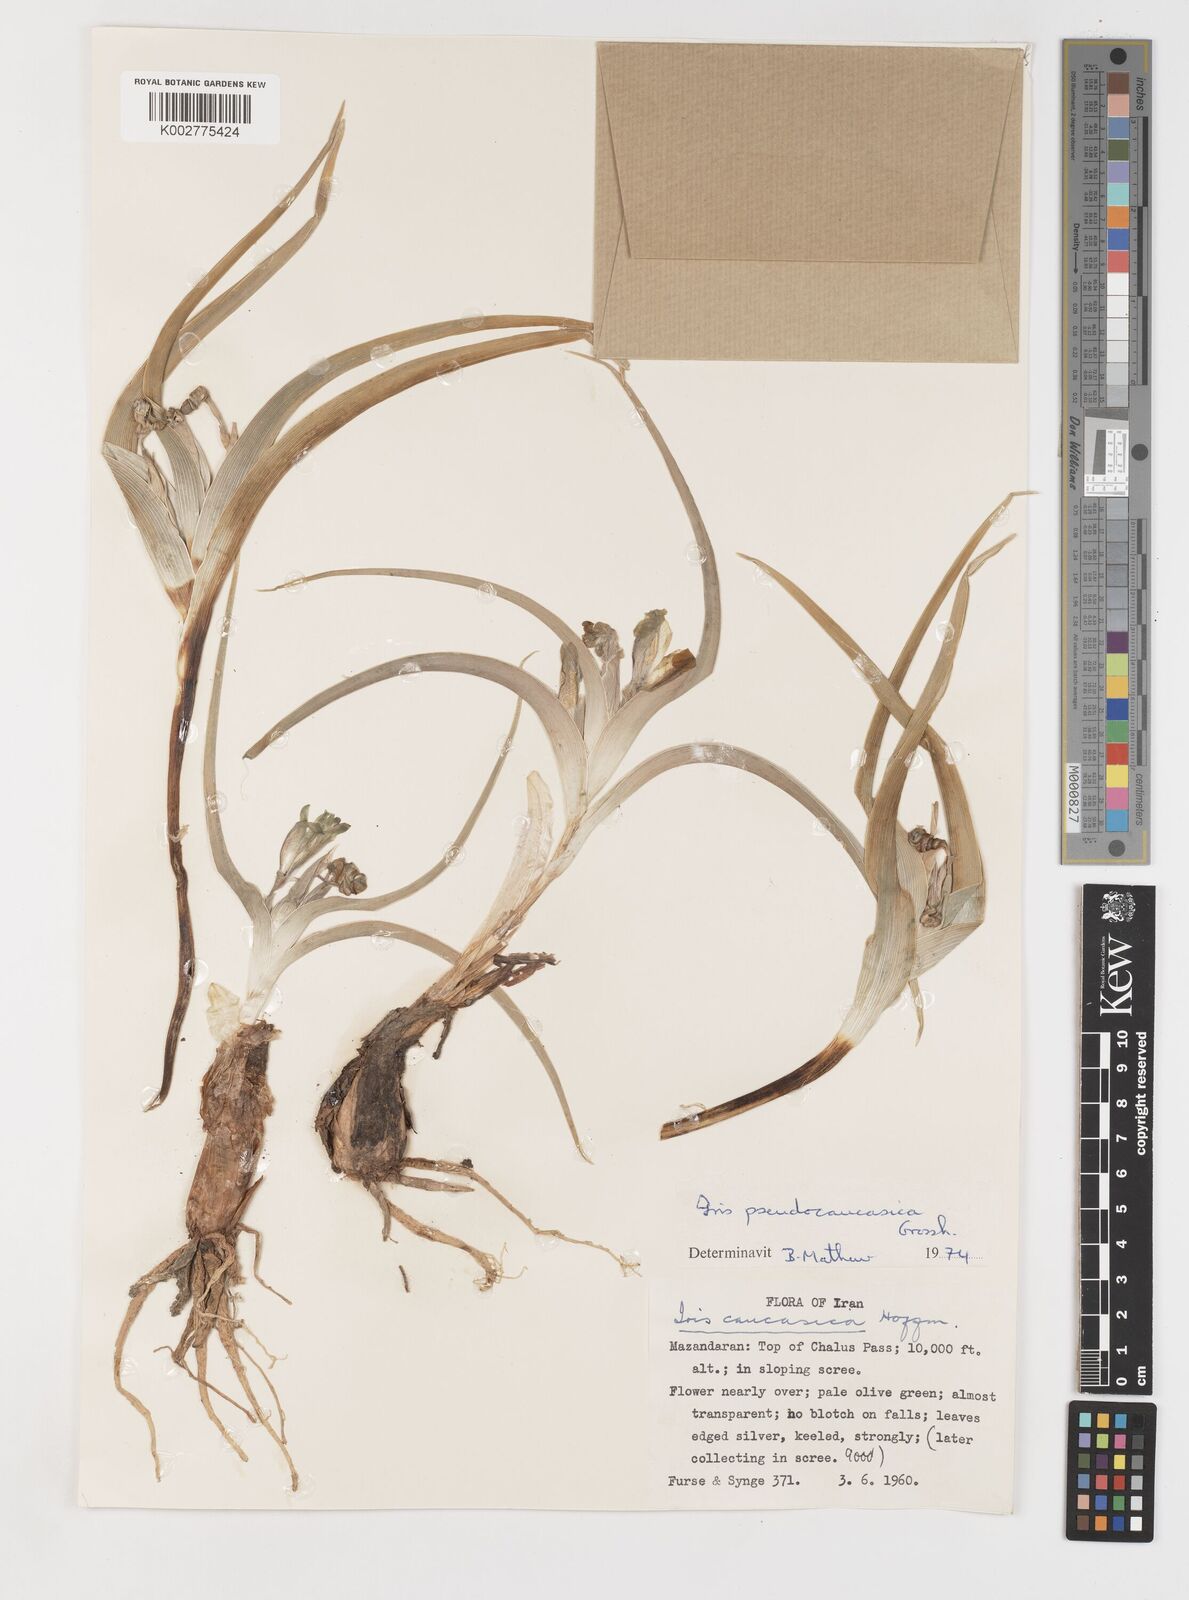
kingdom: Plantae
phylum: Tracheophyta
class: Liliopsida
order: Asparagales
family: Iridaceae
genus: Iris
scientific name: Iris pseudocaucasica
